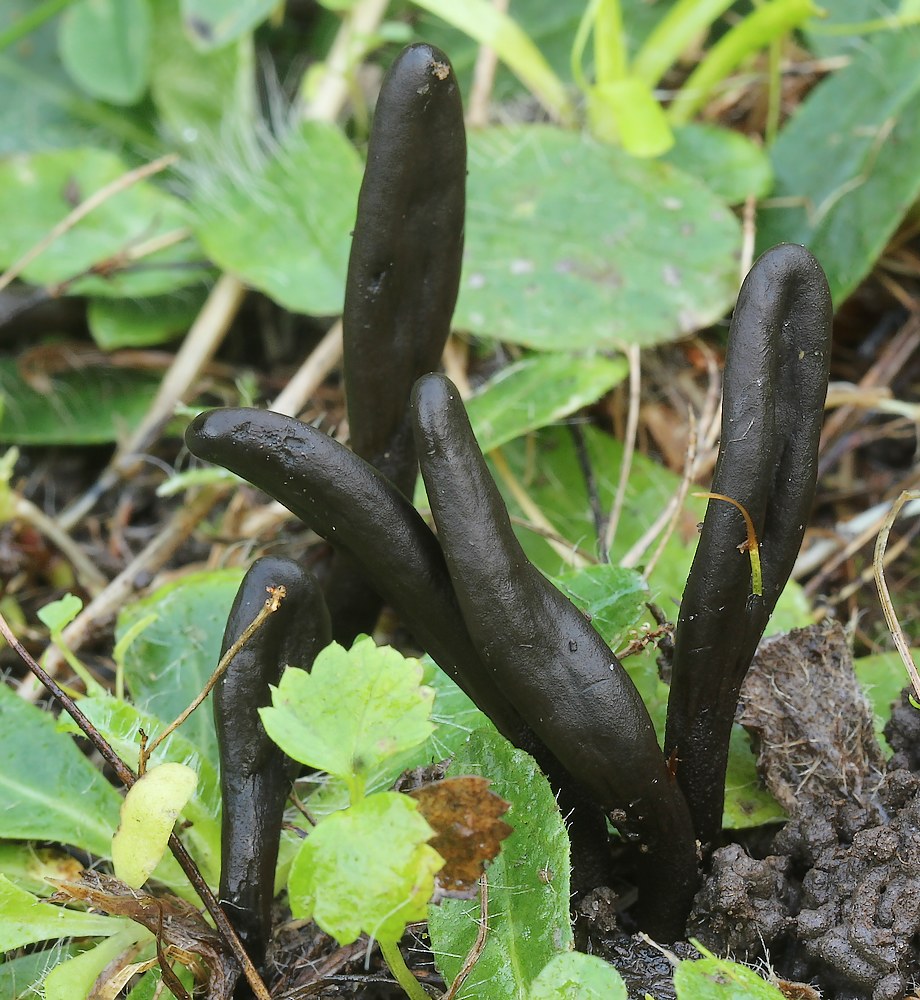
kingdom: Fungi
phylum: Ascomycota
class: Geoglossomycetes
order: Geoglossales
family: Geoglossaceae
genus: Geoglossum
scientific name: Geoglossum umbratile
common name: slank jordtunge
